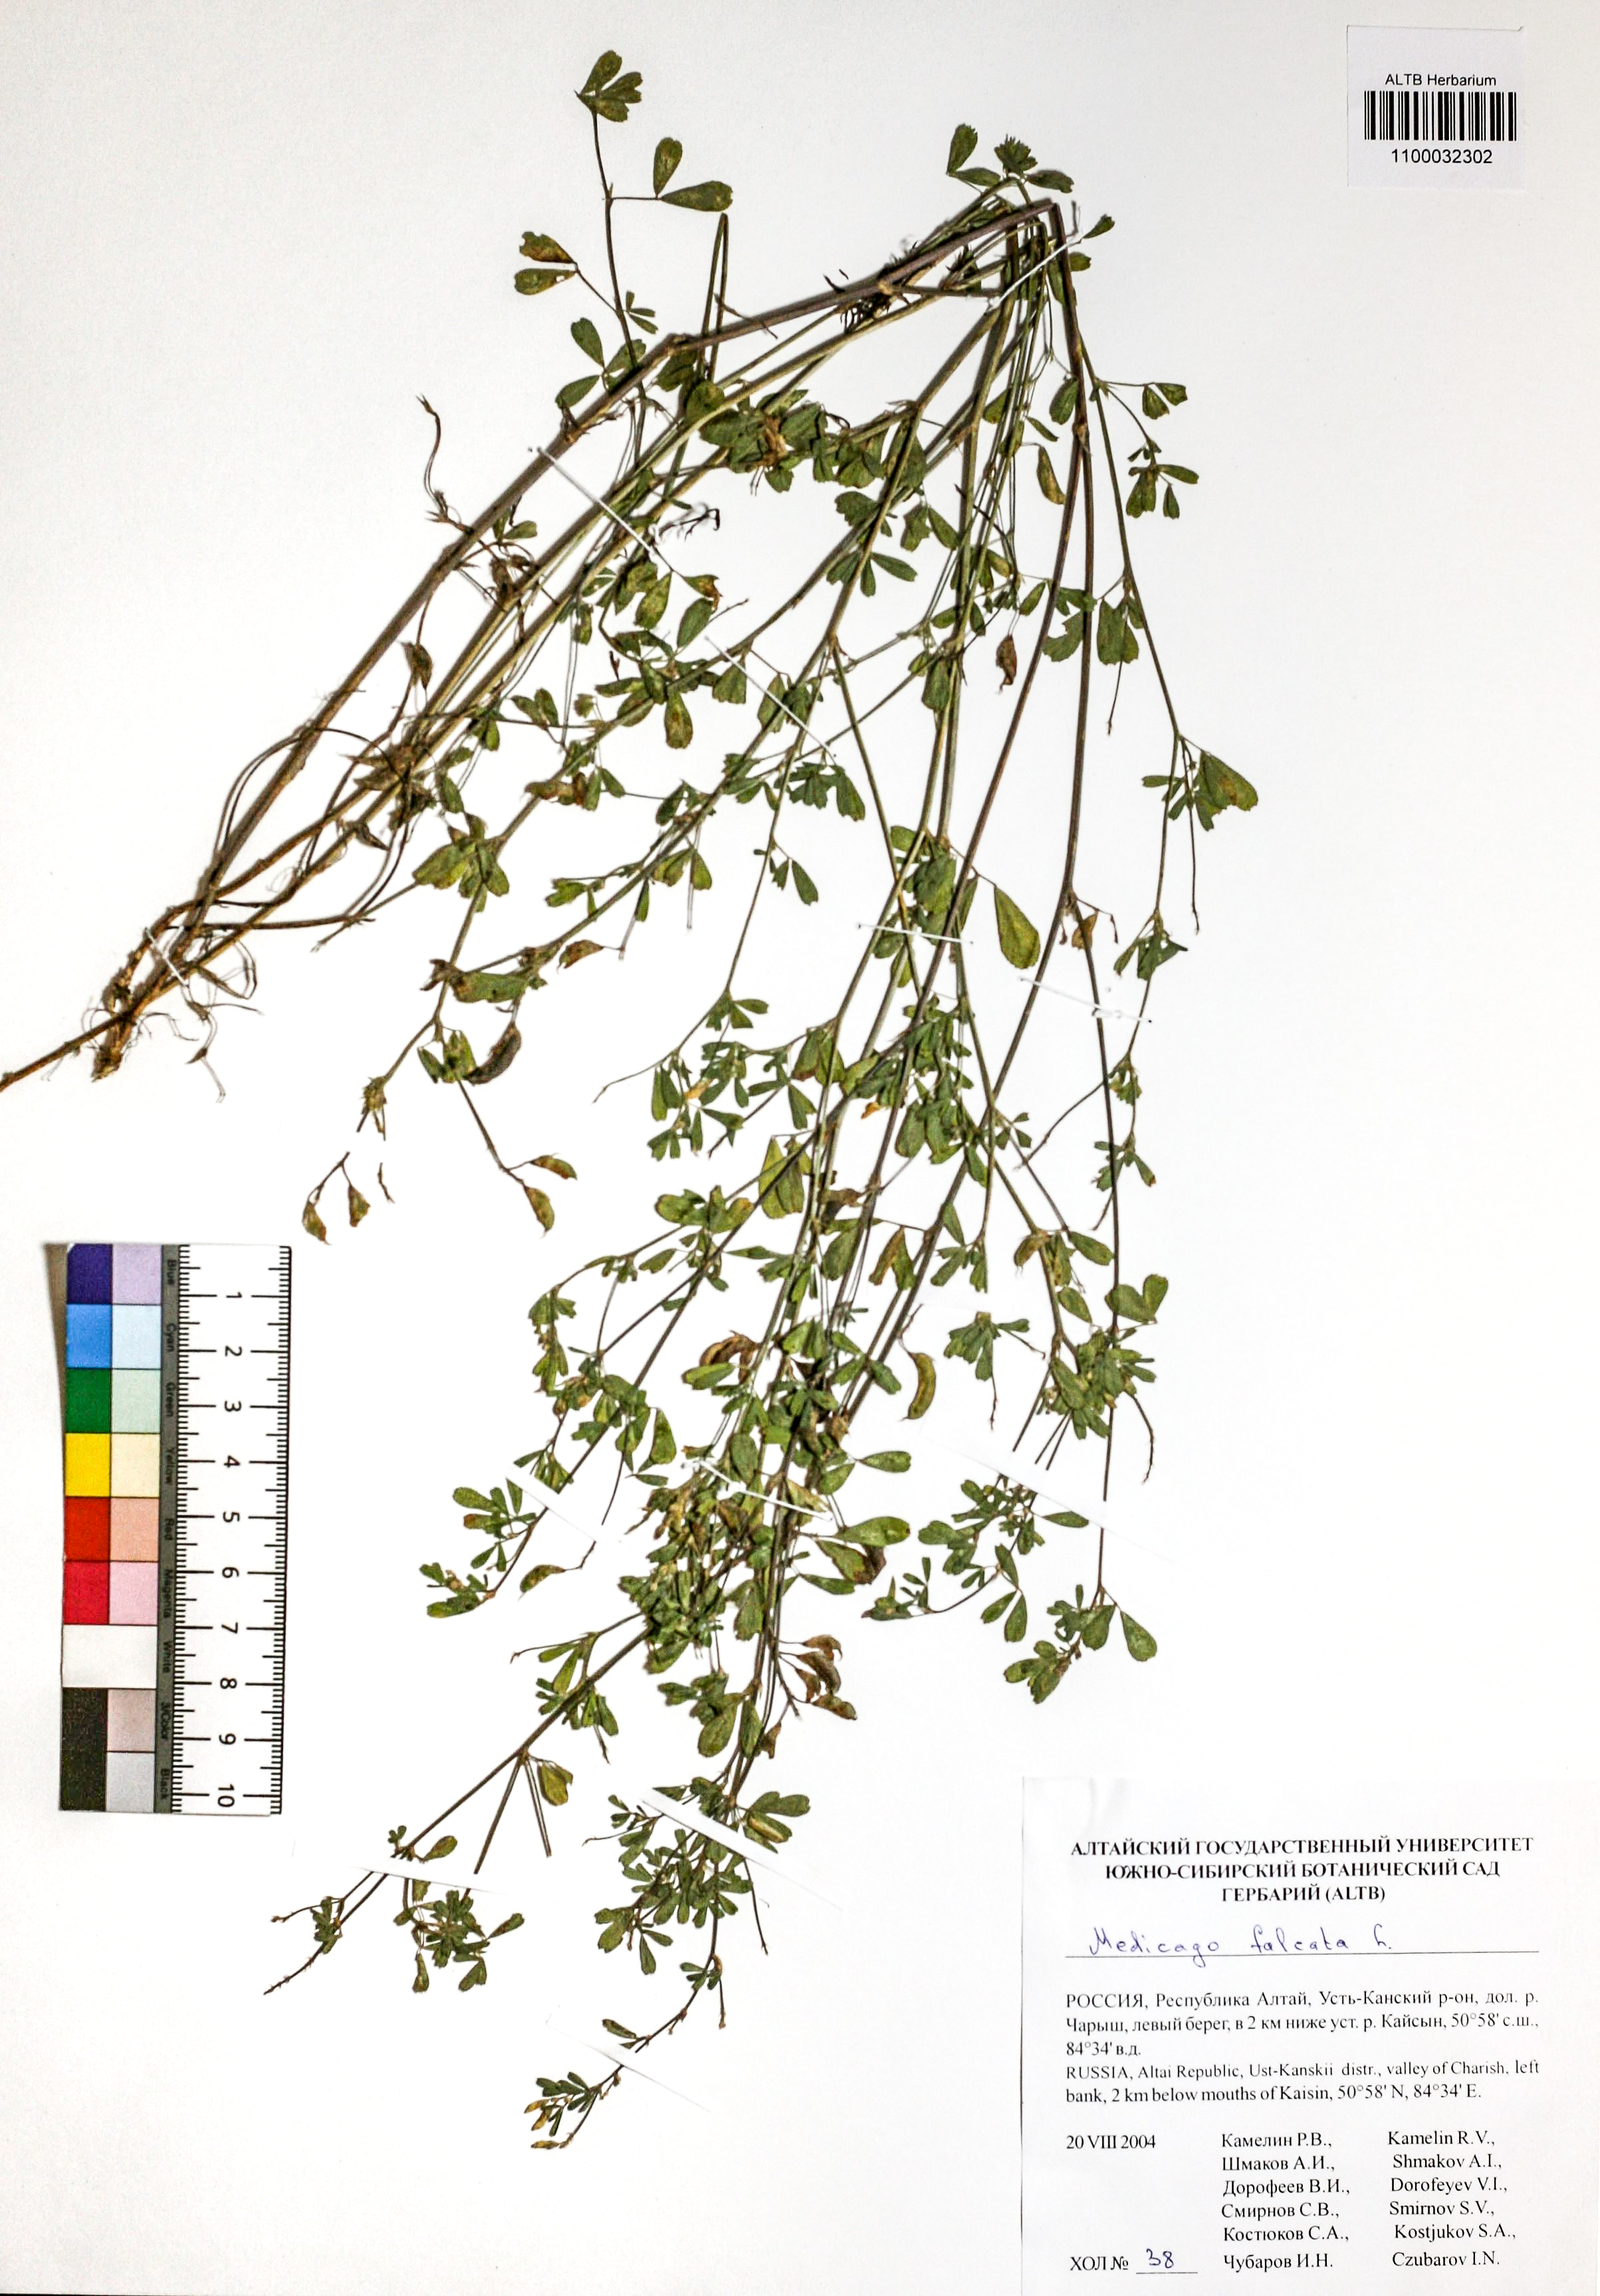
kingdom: Plantae
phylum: Tracheophyta
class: Magnoliopsida
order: Fabales
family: Fabaceae
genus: Medicago
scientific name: Medicago falcata
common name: Sickle medick
